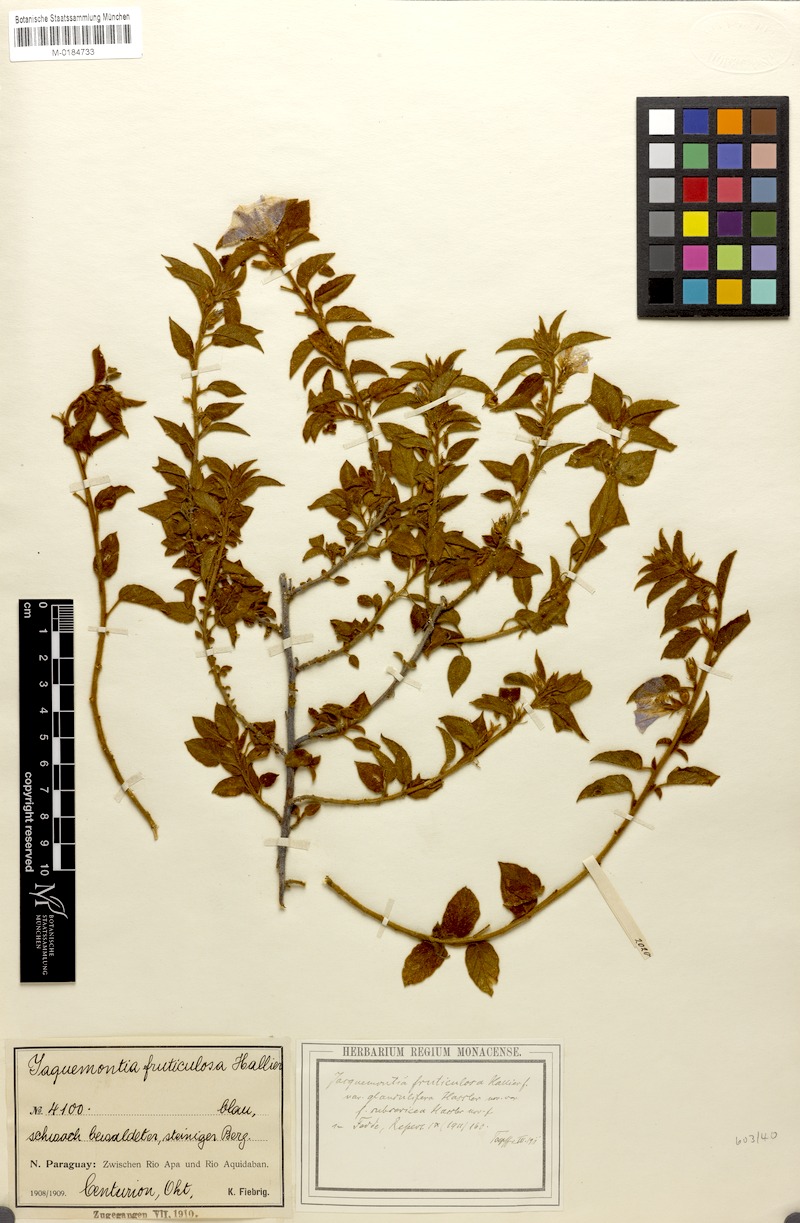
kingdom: Plantae
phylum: Tracheophyta
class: Magnoliopsida
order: Solanales
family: Convolvulaceae
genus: Jacquemontia
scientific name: Jacquemontia fruticulosa
